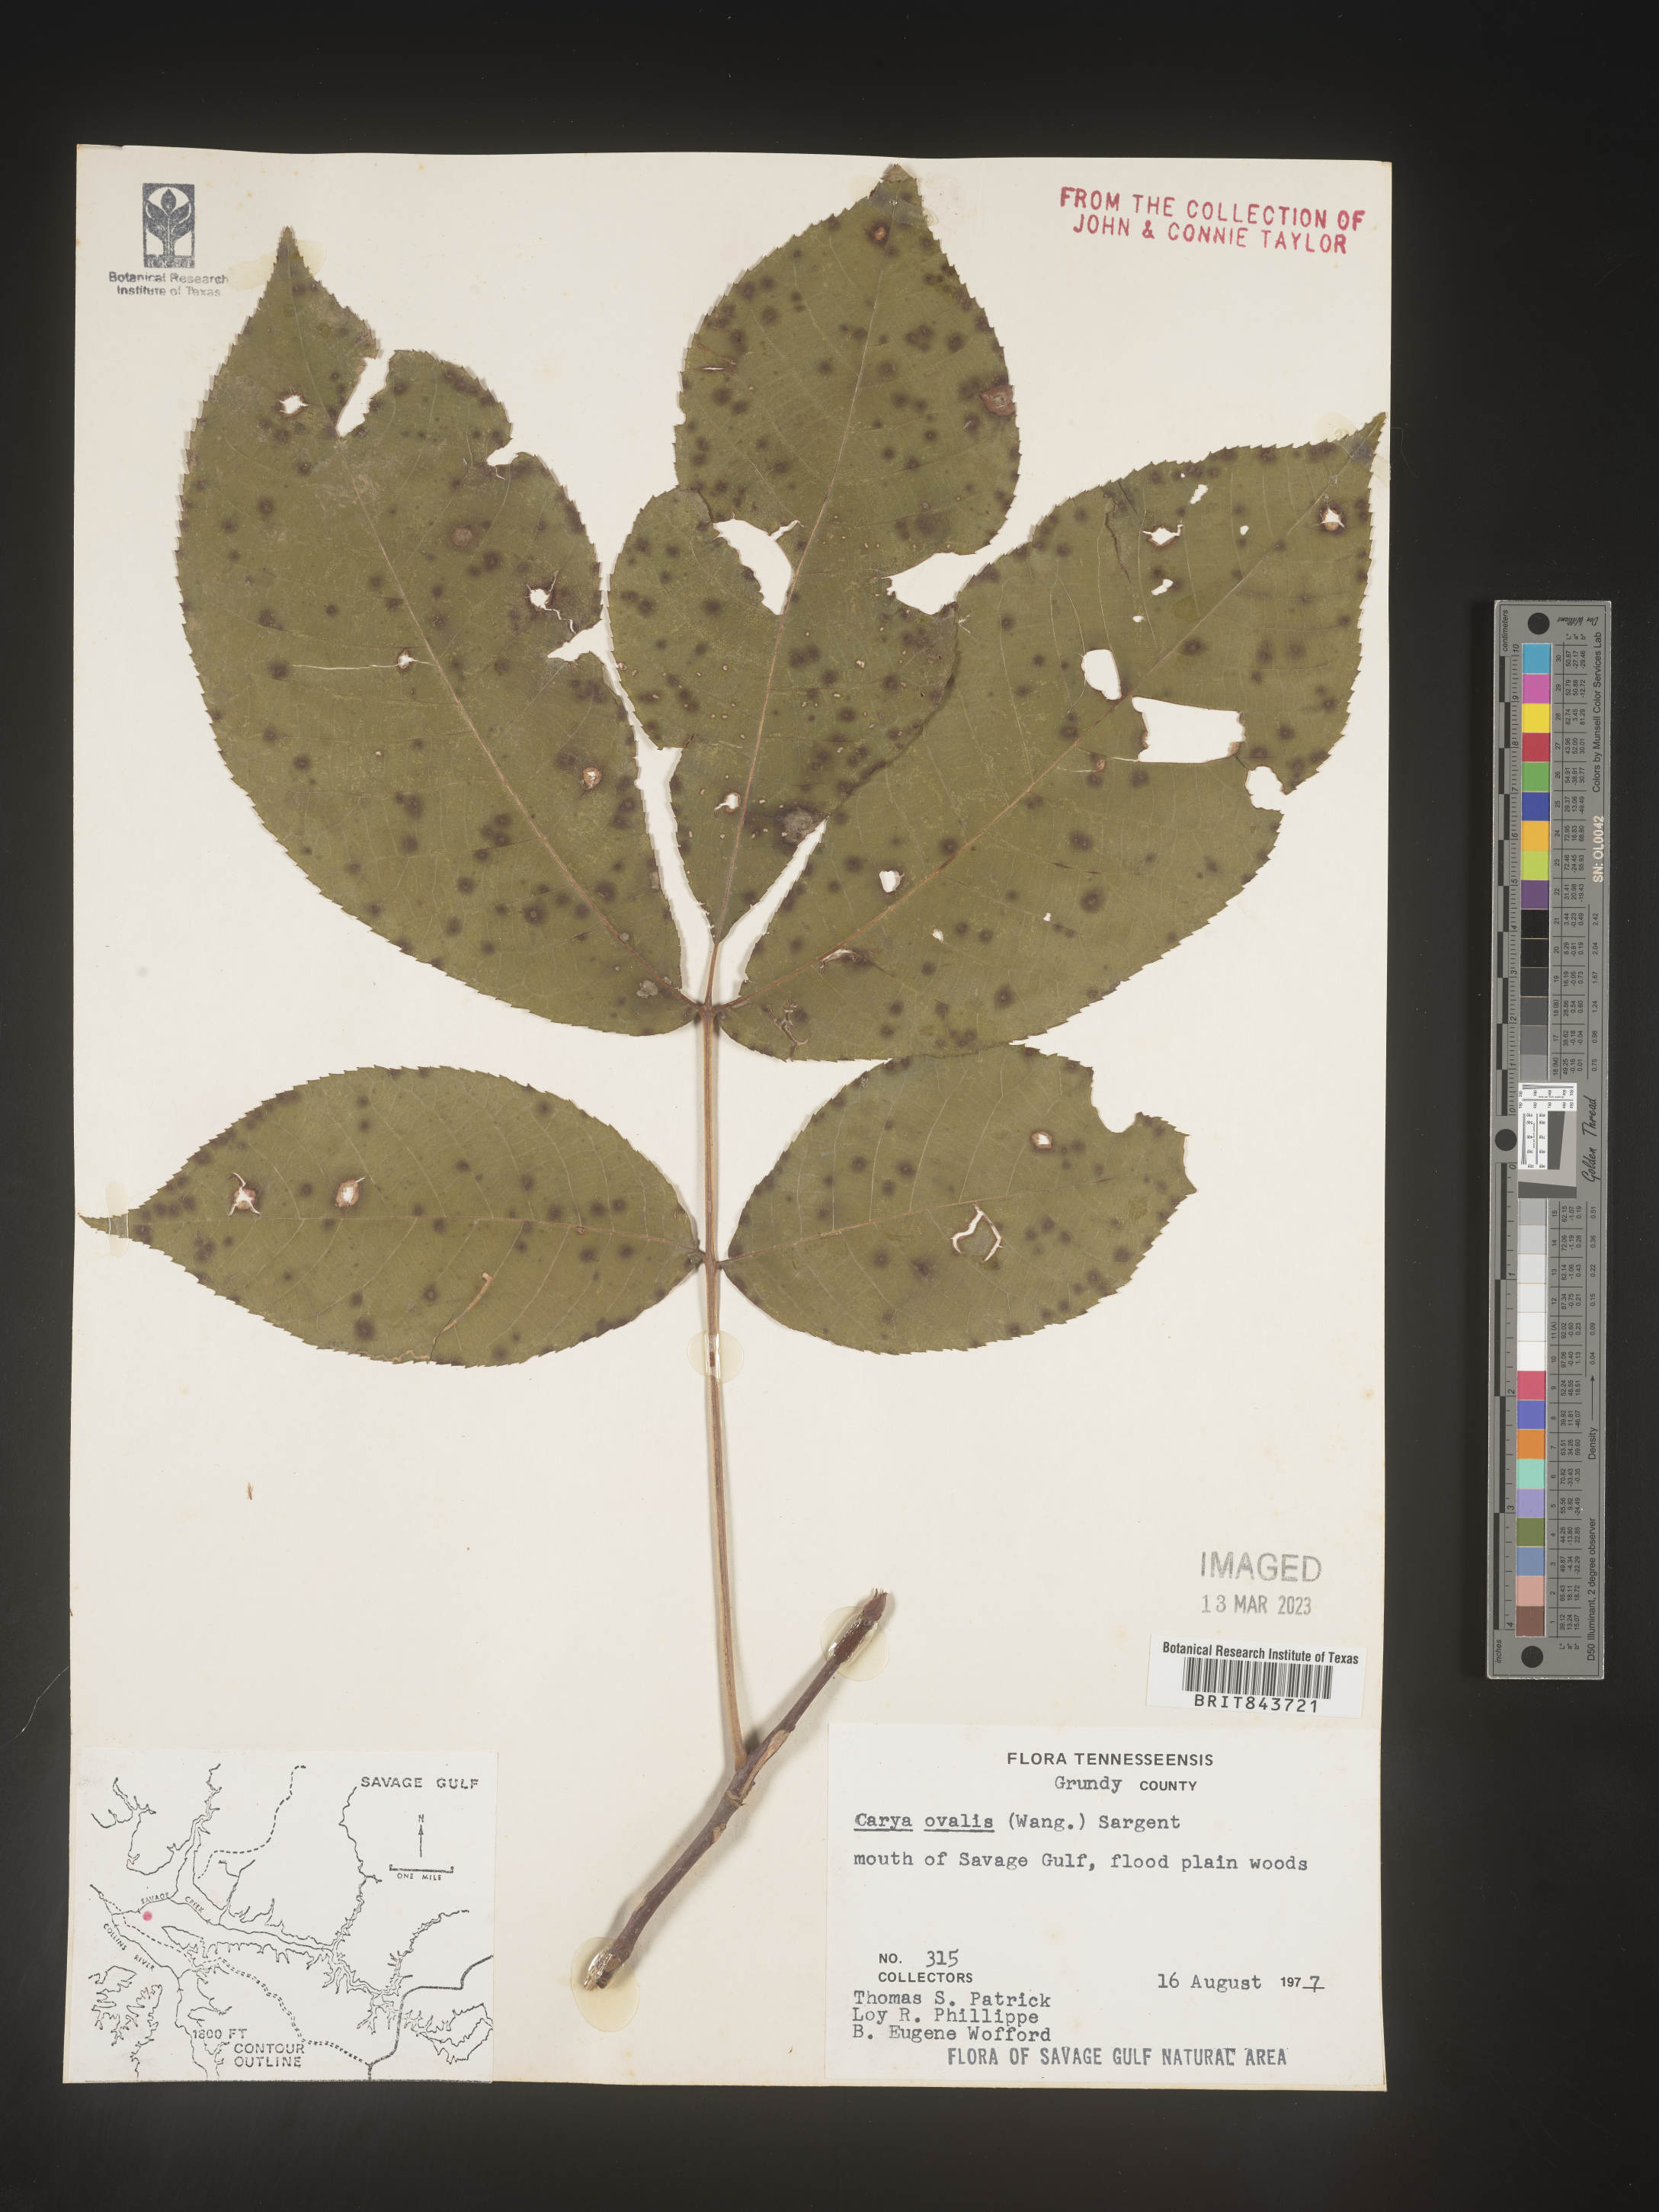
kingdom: Plantae
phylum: Tracheophyta
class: Magnoliopsida
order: Fagales
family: Juglandaceae
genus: Carya
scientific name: Carya ovalis
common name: False shagbark
